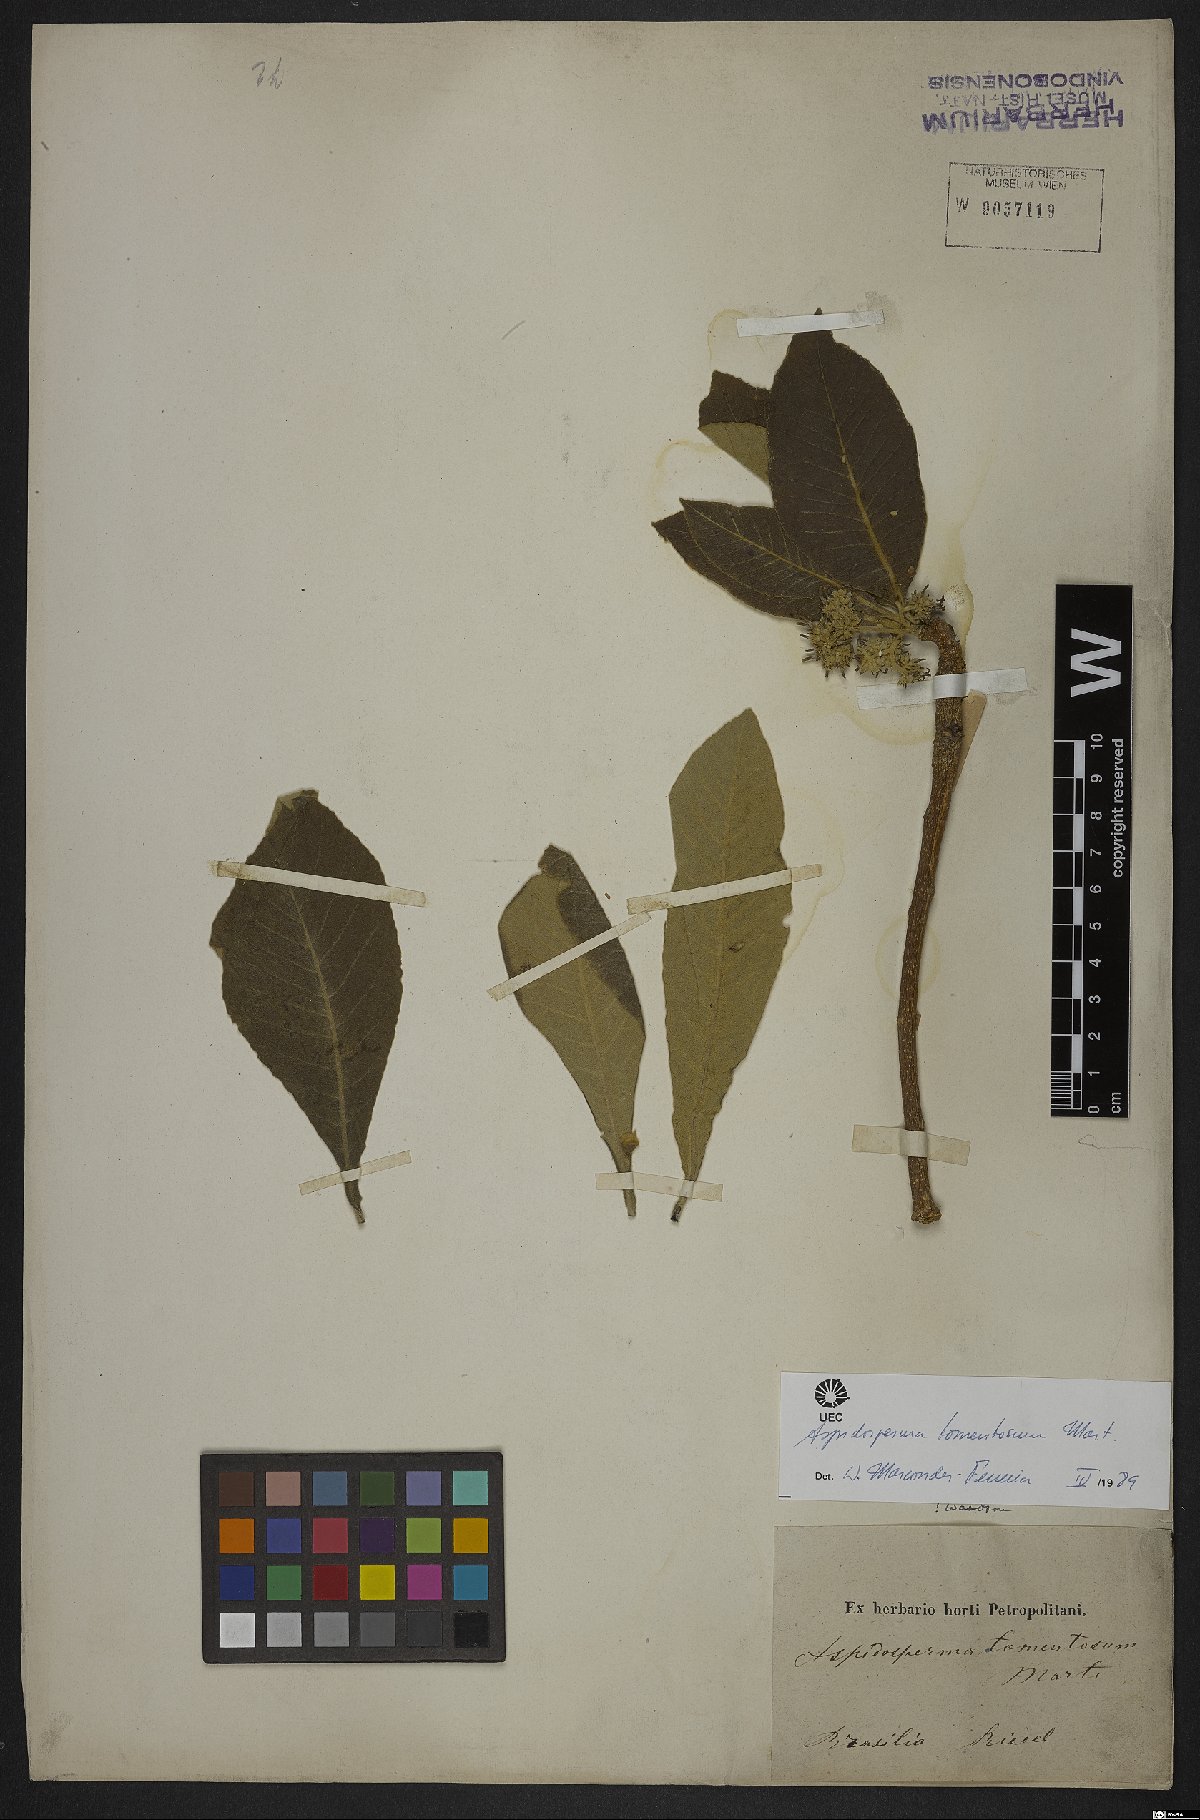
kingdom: Plantae
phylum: Tracheophyta
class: Magnoliopsida
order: Gentianales
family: Apocynaceae
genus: Aspidosperma
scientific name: Aspidosperma tomentosum
